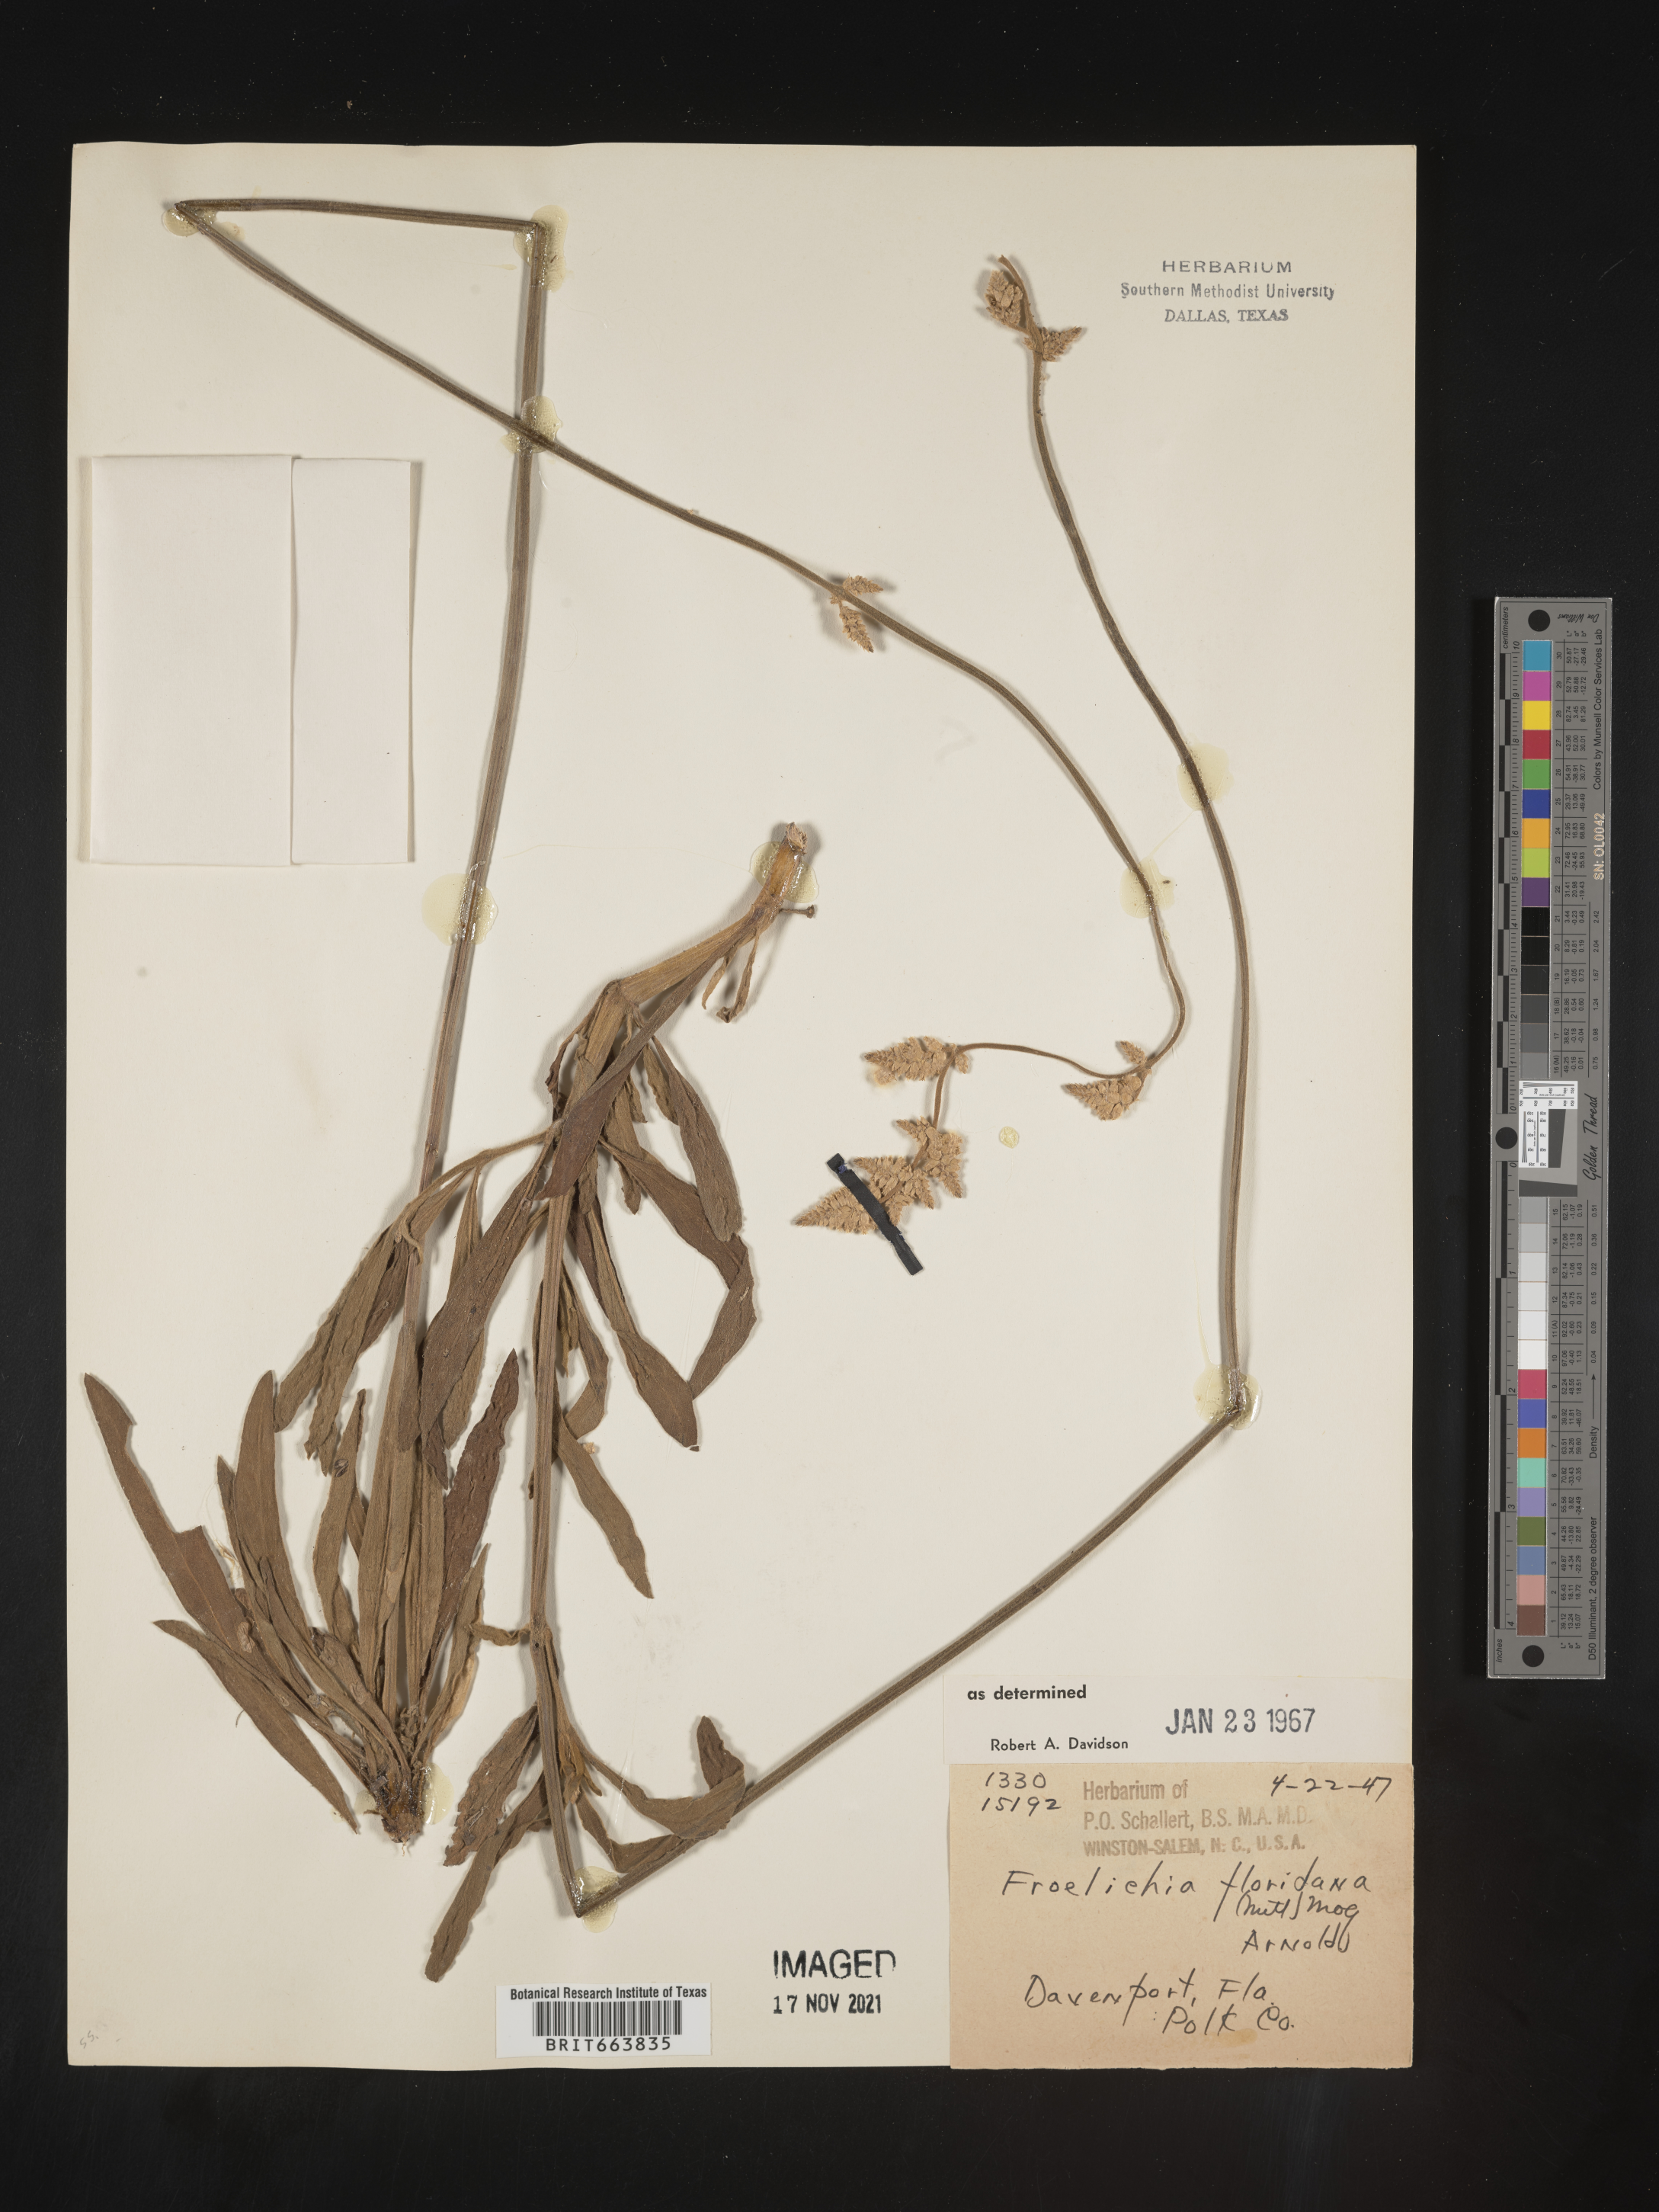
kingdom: Plantae
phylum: Tracheophyta
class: Magnoliopsida
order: Caryophyllales
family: Amaranthaceae
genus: Froelichia
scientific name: Froelichia floridana
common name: Florida snake-cotton
